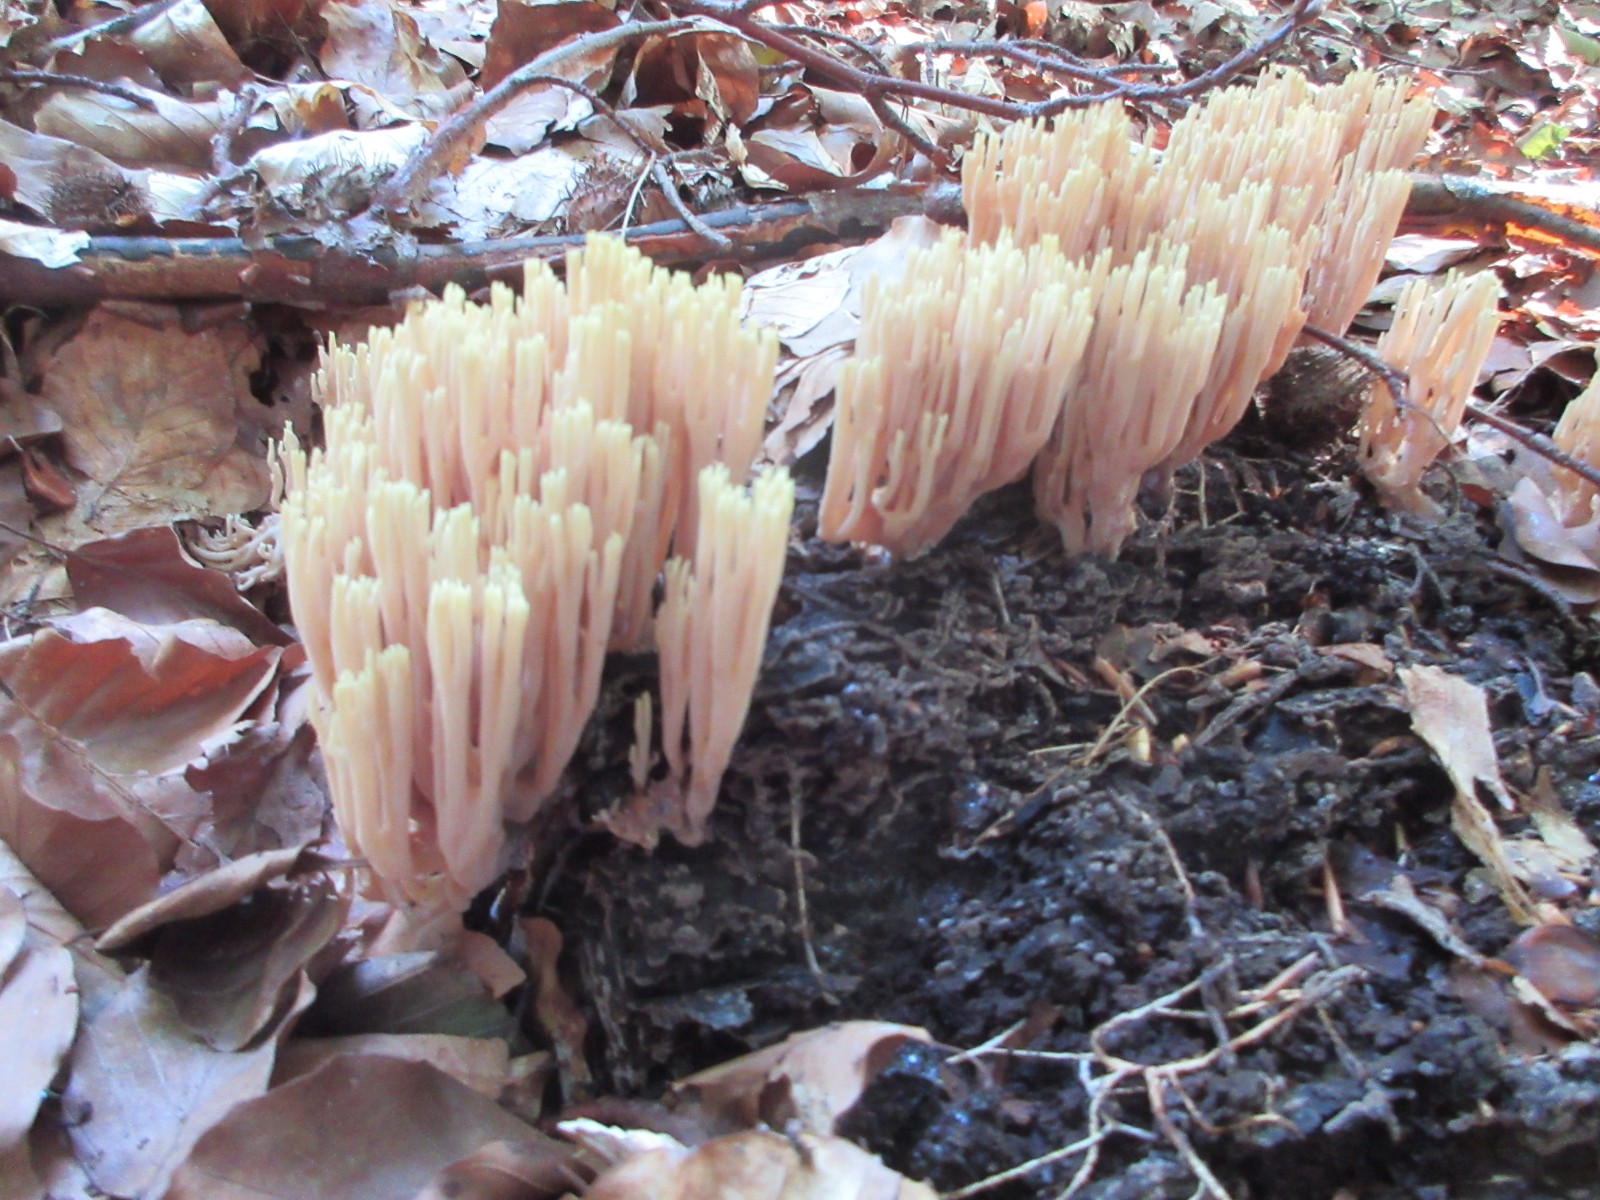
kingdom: Fungi
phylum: Basidiomycota
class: Agaricomycetes
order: Gomphales
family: Gomphaceae
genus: Ramaria
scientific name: Ramaria stricta
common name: rank koralsvamp
